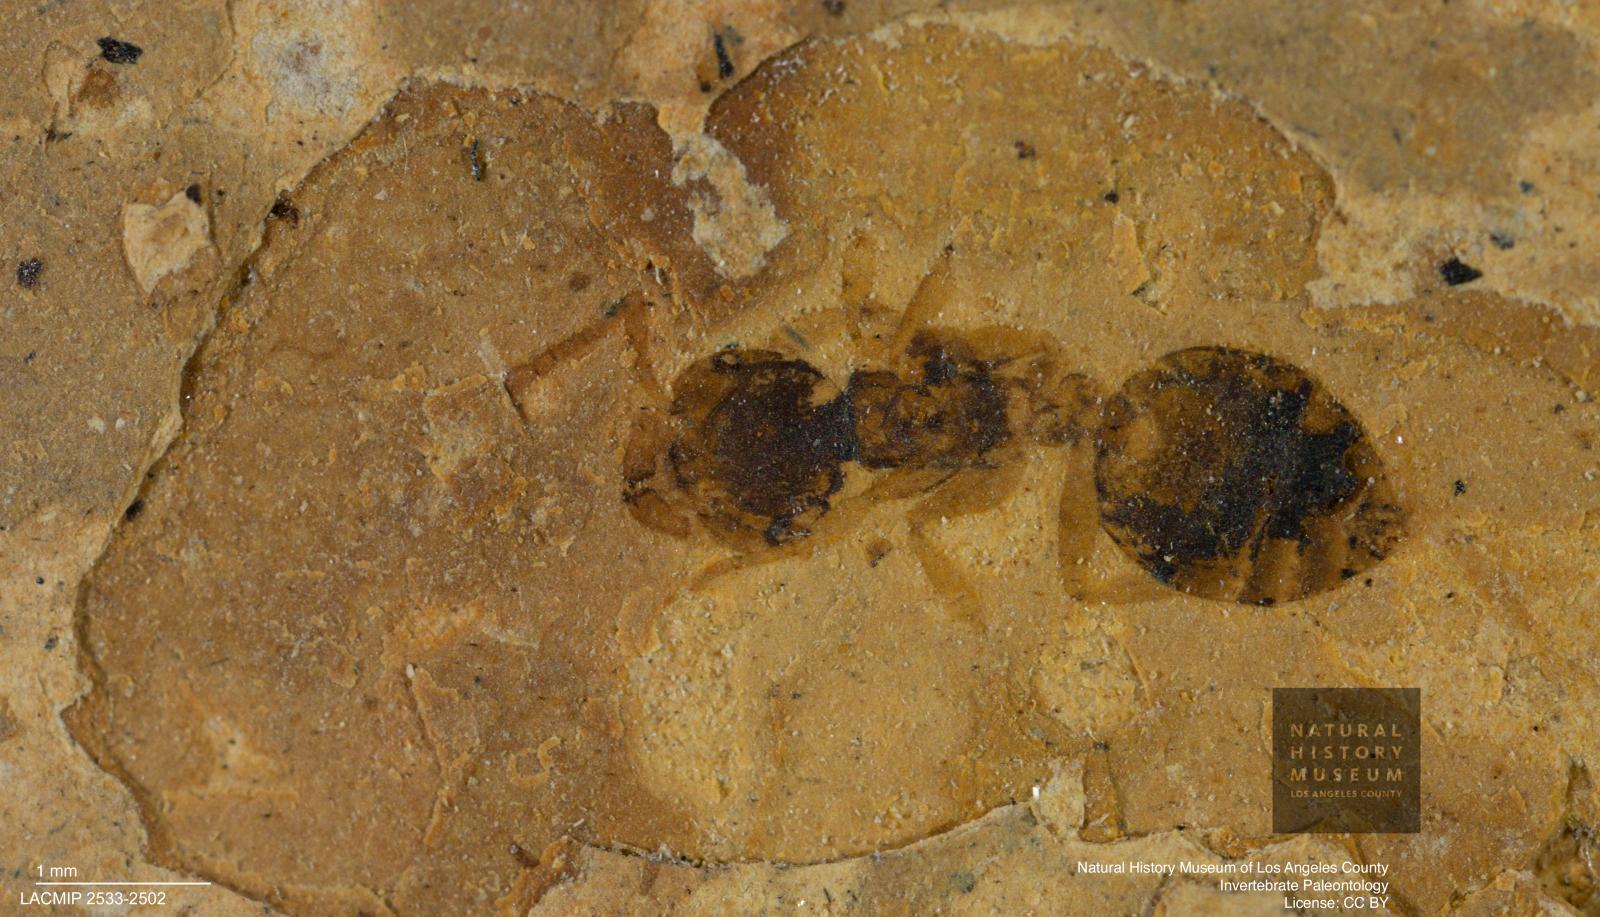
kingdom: Animalia
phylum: Arthropoda
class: Insecta
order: Hymenoptera
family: Formicidae
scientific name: Formicidae
